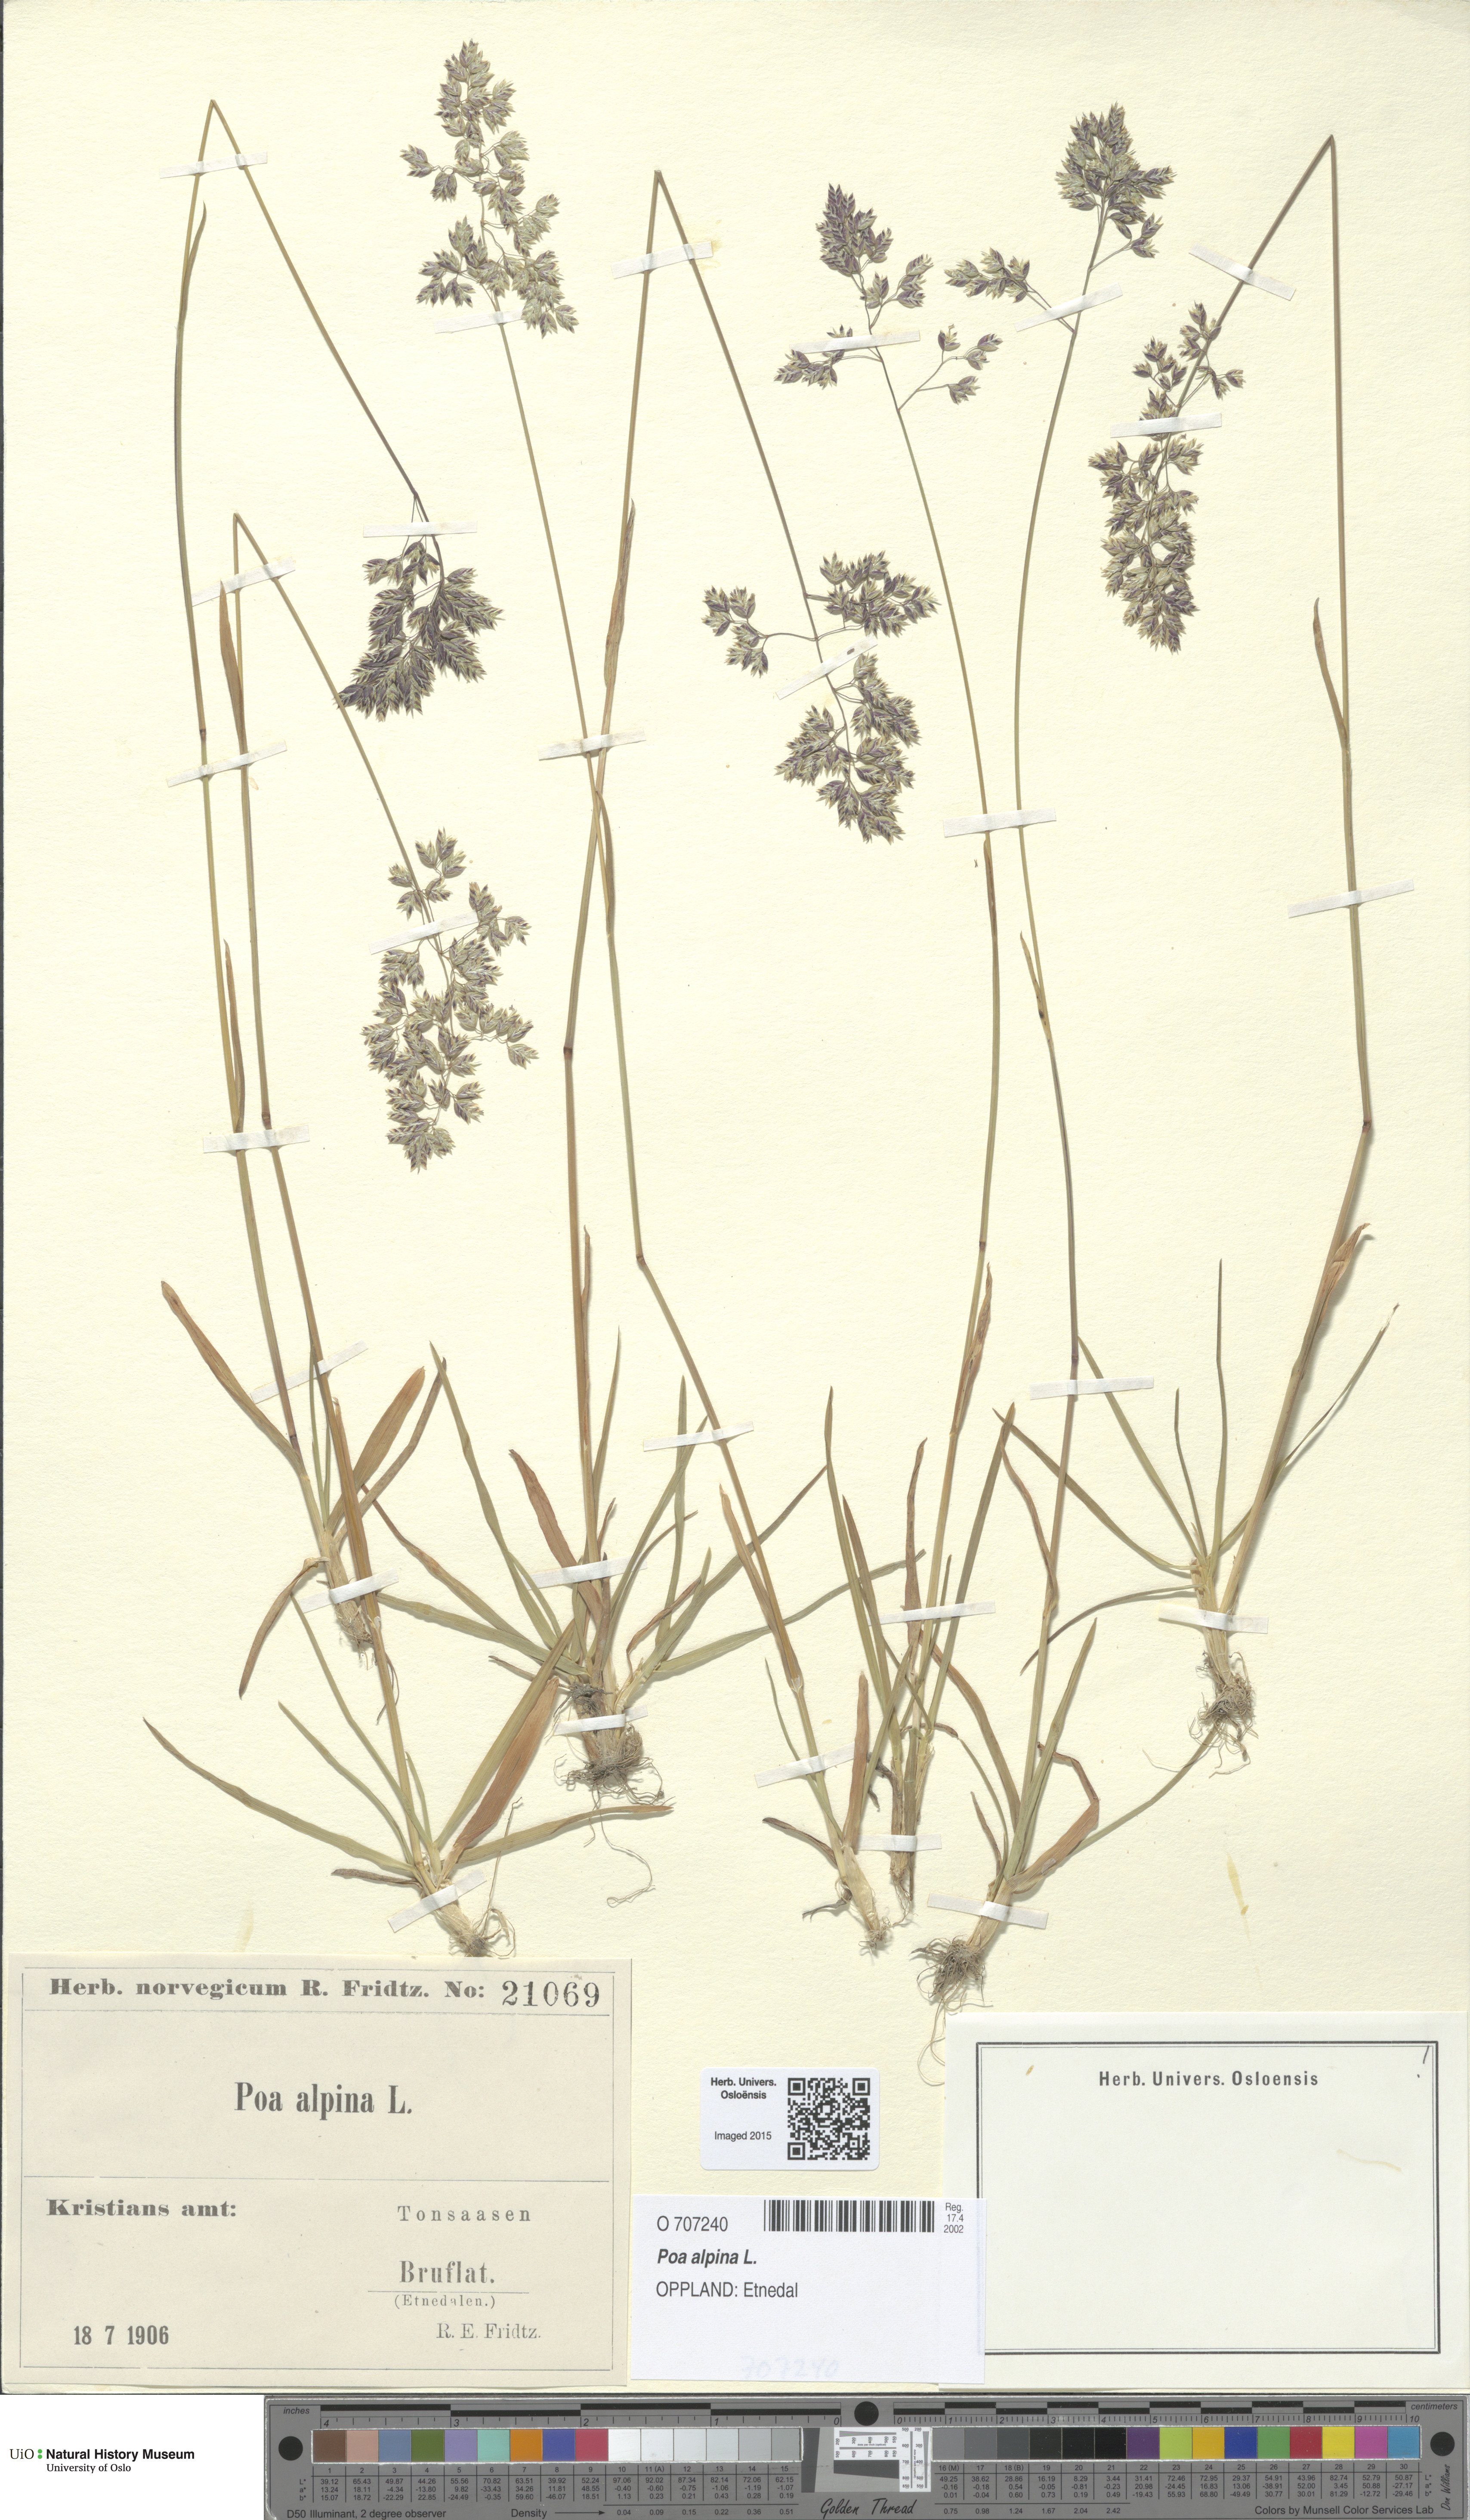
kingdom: Plantae
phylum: Tracheophyta
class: Liliopsida
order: Poales
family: Poaceae
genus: Poa
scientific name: Poa alpina
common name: Alpine bluegrass
